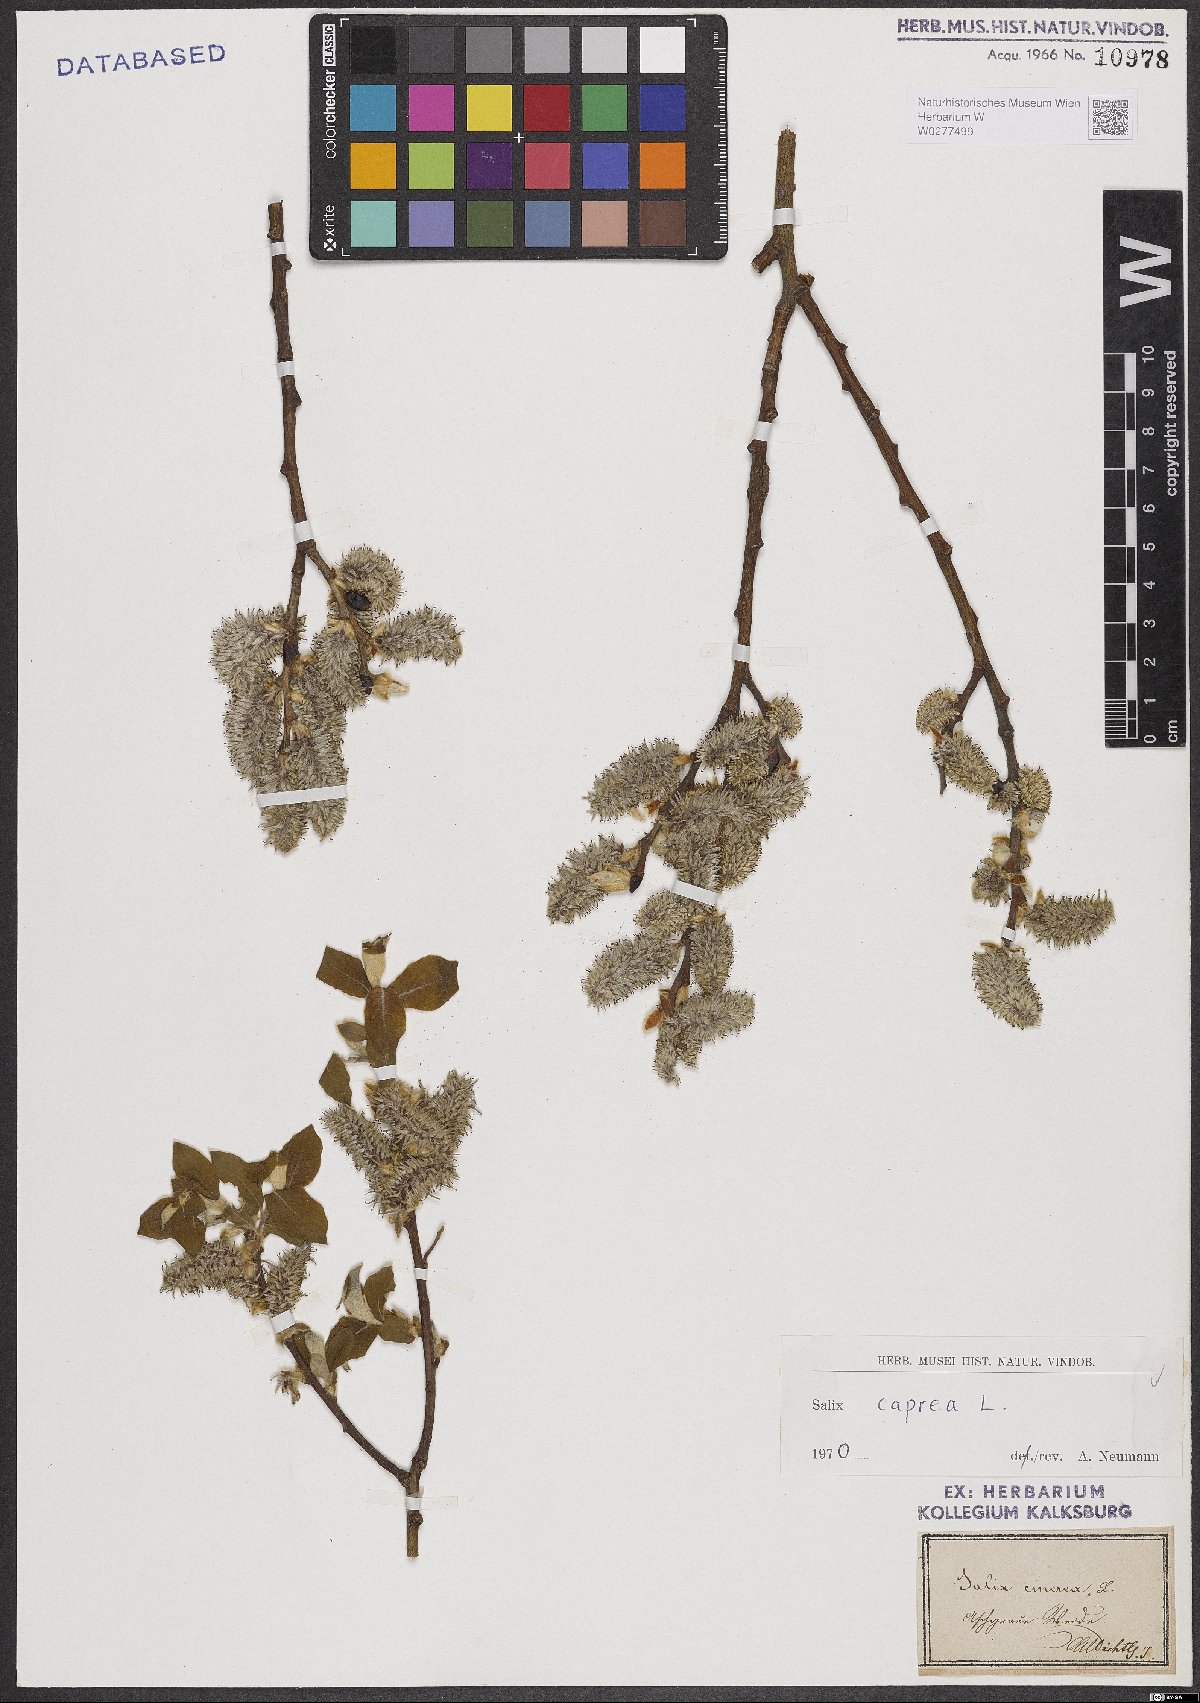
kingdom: Plantae
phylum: Tracheophyta
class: Magnoliopsida
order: Malpighiales
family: Salicaceae
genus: Salix
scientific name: Salix caprea
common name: Goat willow
